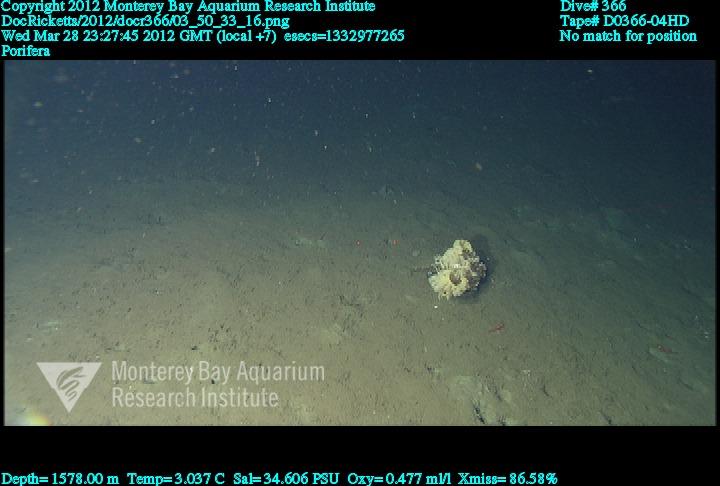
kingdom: Animalia
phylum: Porifera
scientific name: Porifera
